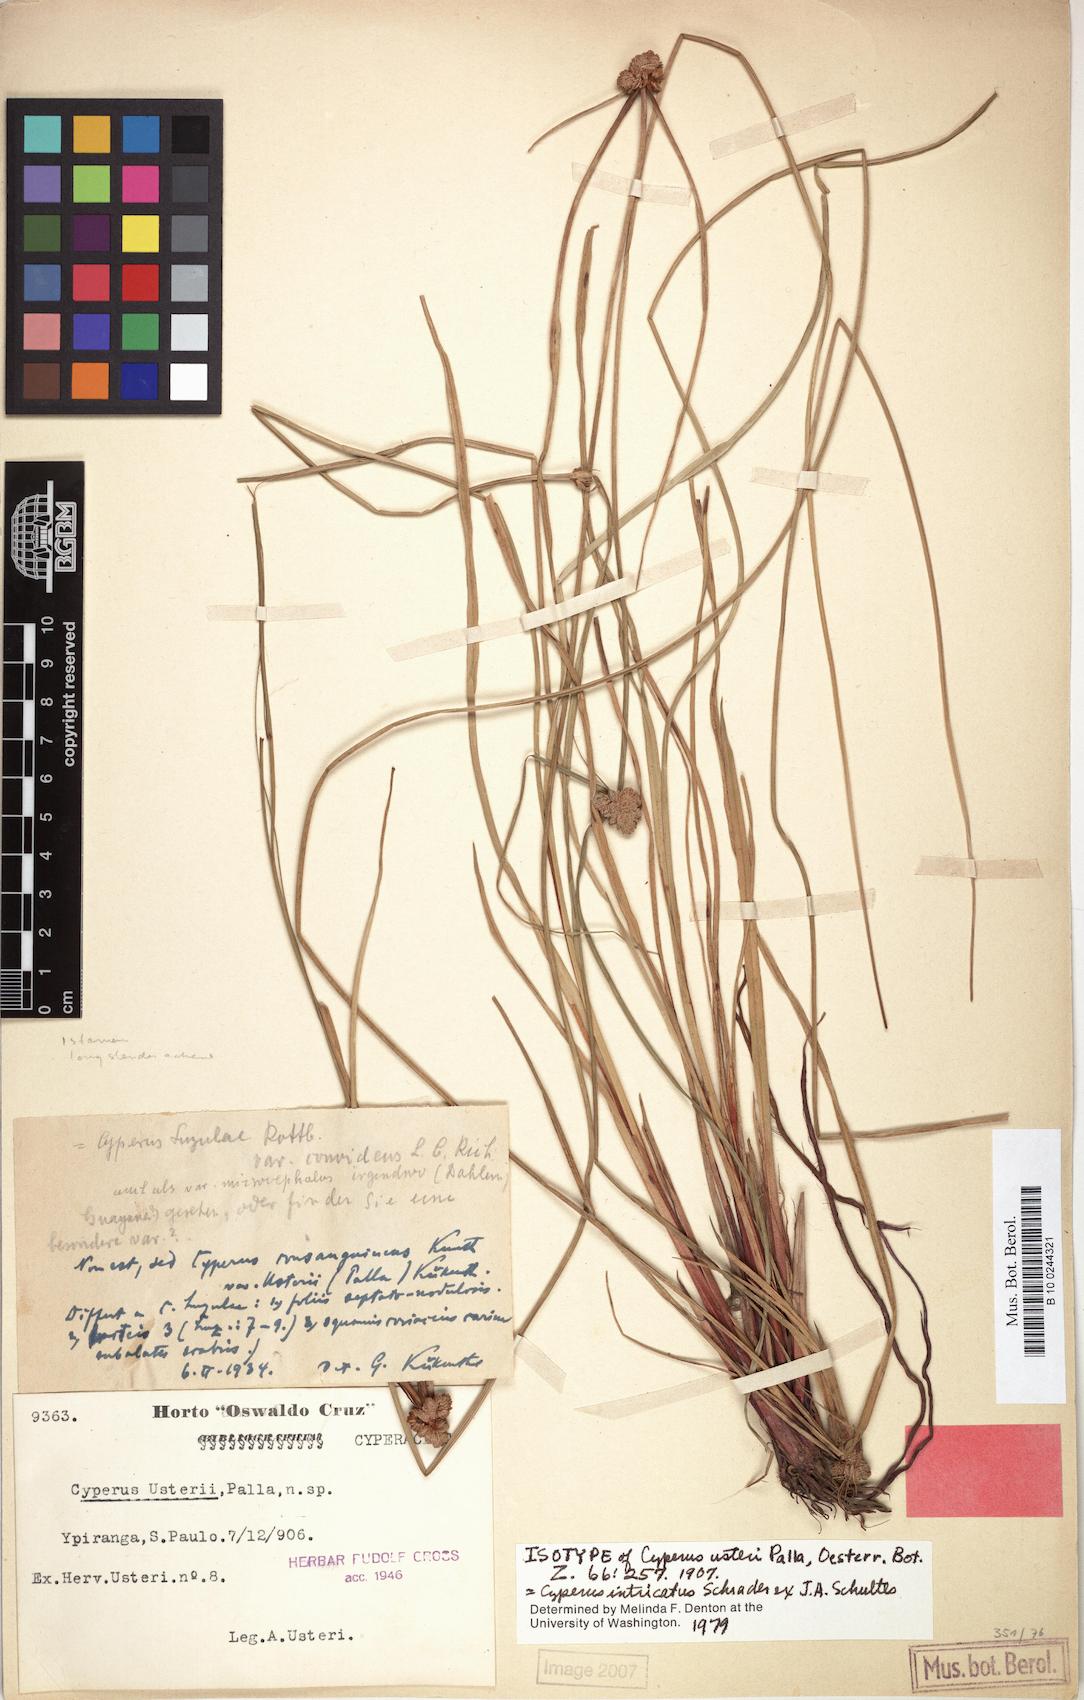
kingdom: Plantae
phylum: Tracheophyta
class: Liliopsida
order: Poales
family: Cyperaceae
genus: Cyperus
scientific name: Cyperus intricatus
